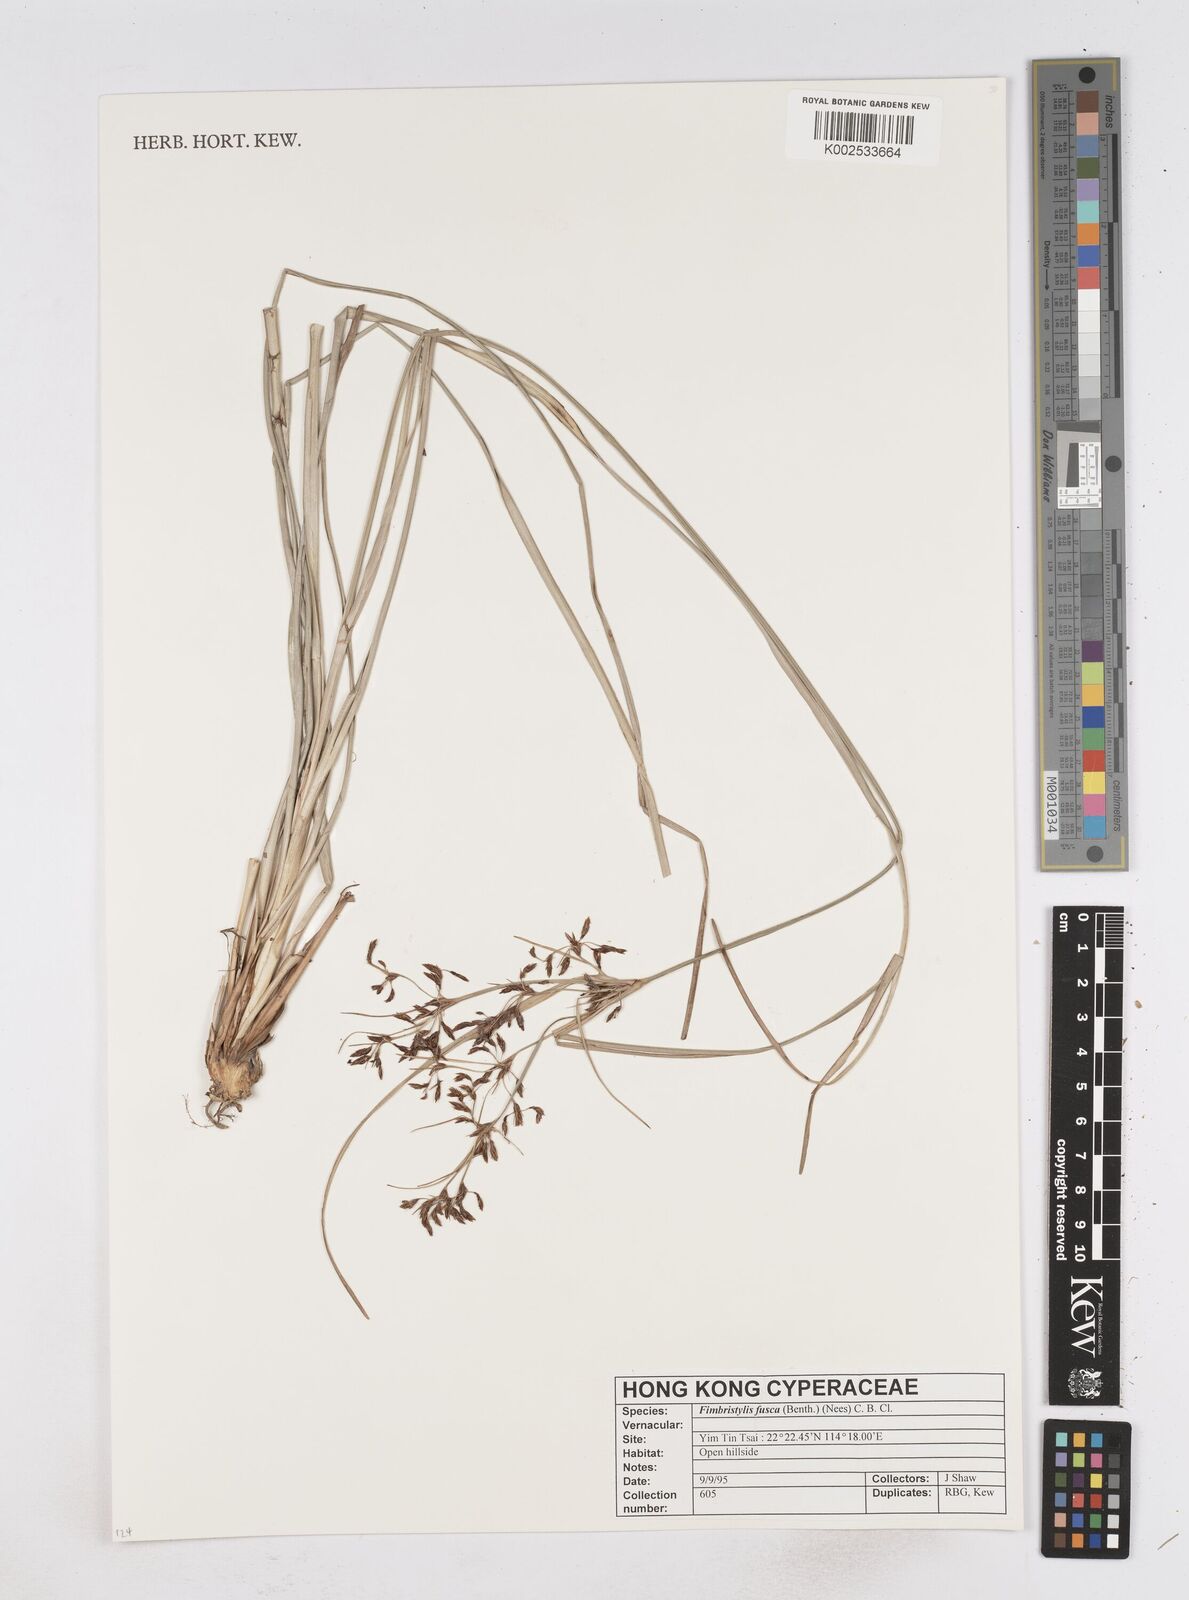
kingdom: Plantae
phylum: Tracheophyta
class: Liliopsida
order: Poales
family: Cyperaceae
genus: Fimbristylis
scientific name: Fimbristylis fusca
